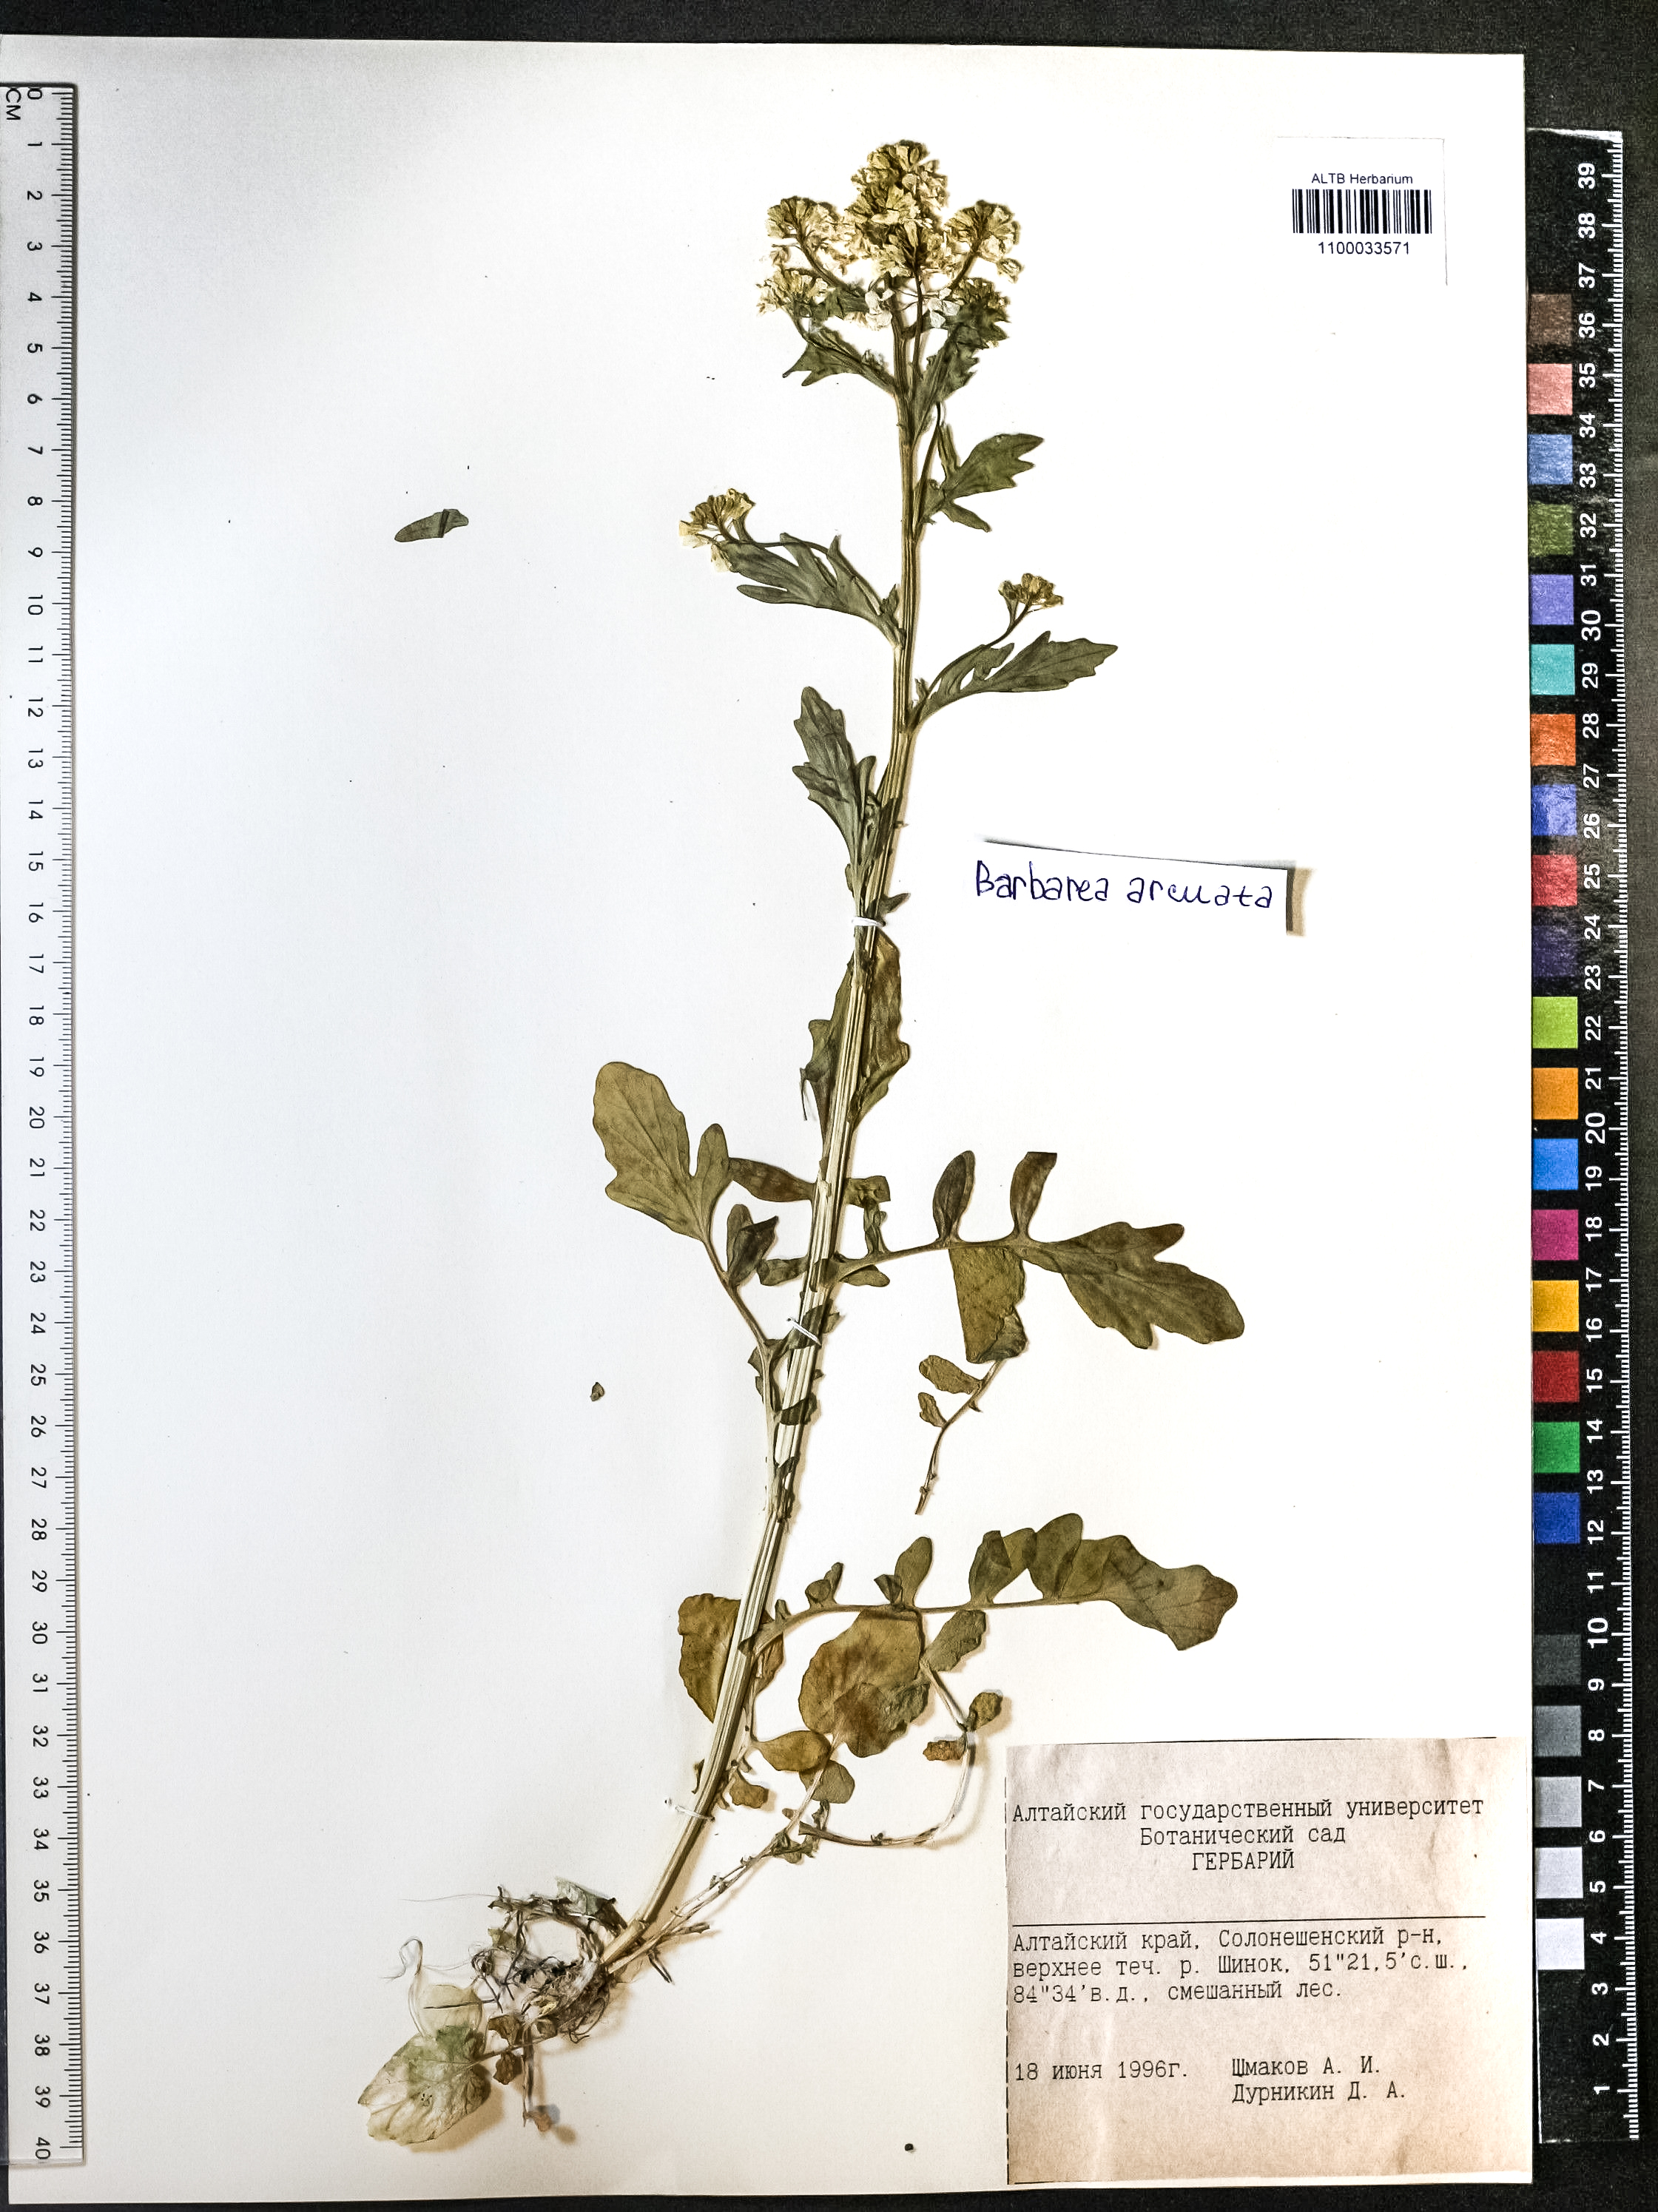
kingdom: Plantae
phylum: Tracheophyta
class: Magnoliopsida
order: Brassicales
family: Brassicaceae
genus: Barbarea
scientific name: Barbarea vulgaris
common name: Cressy-greens
